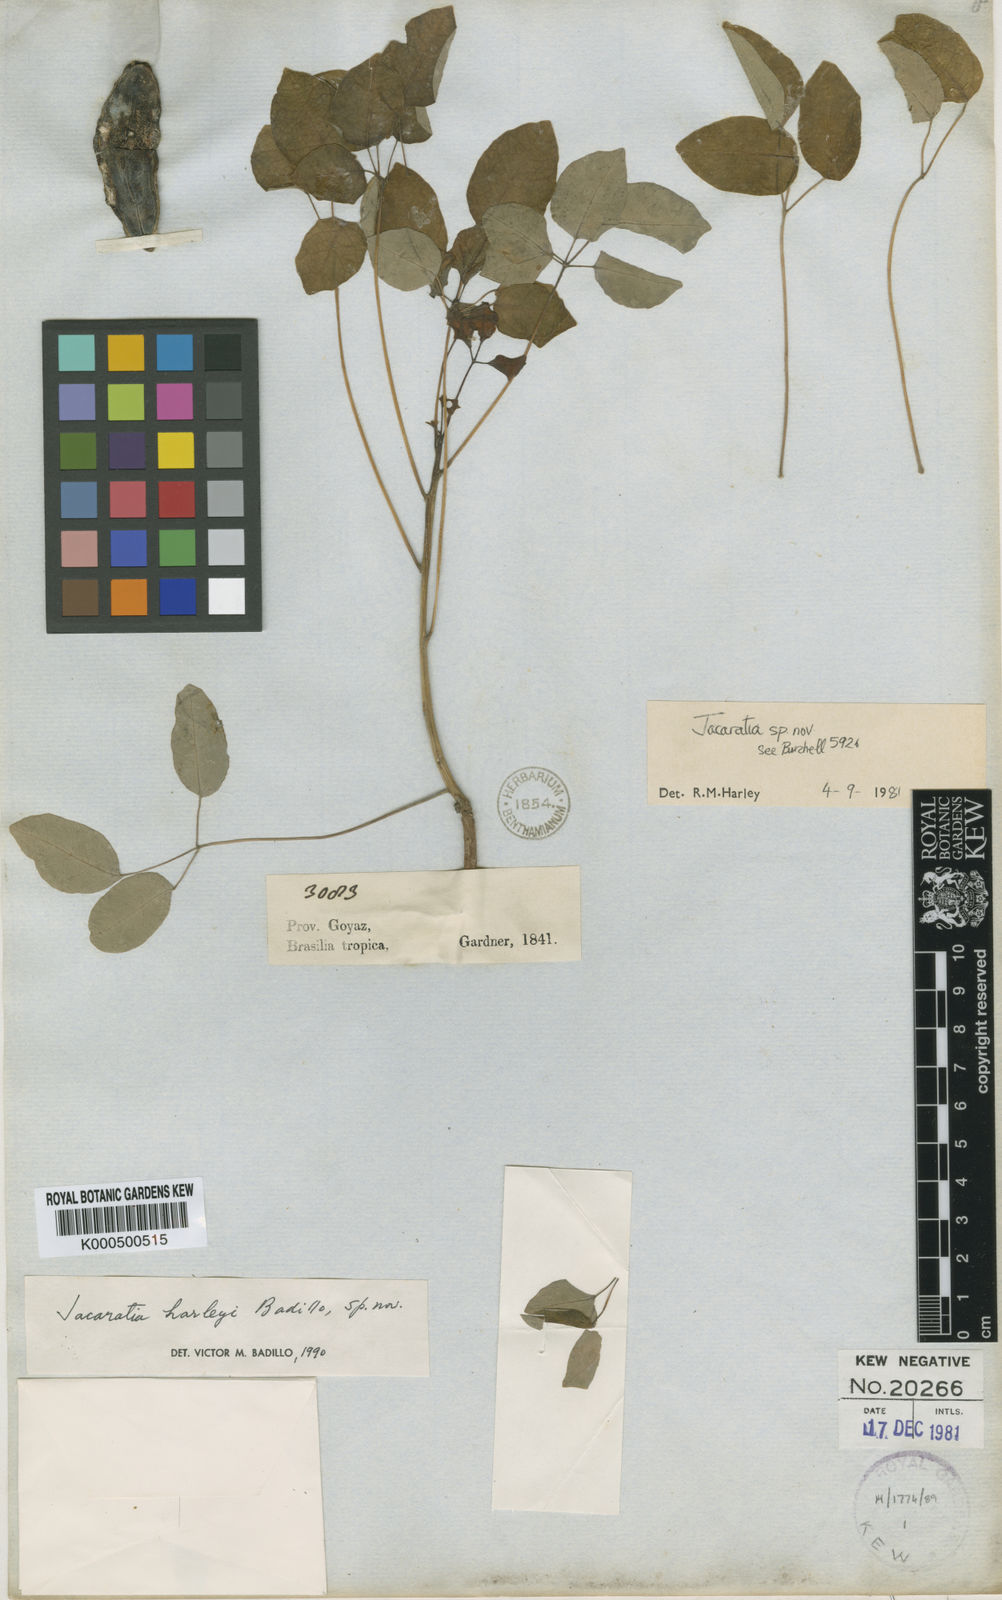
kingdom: Plantae
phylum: Tracheophyta
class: Magnoliopsida
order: Brassicales
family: Caricaceae
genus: Jacaratia
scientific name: Jacaratia corumbensis
